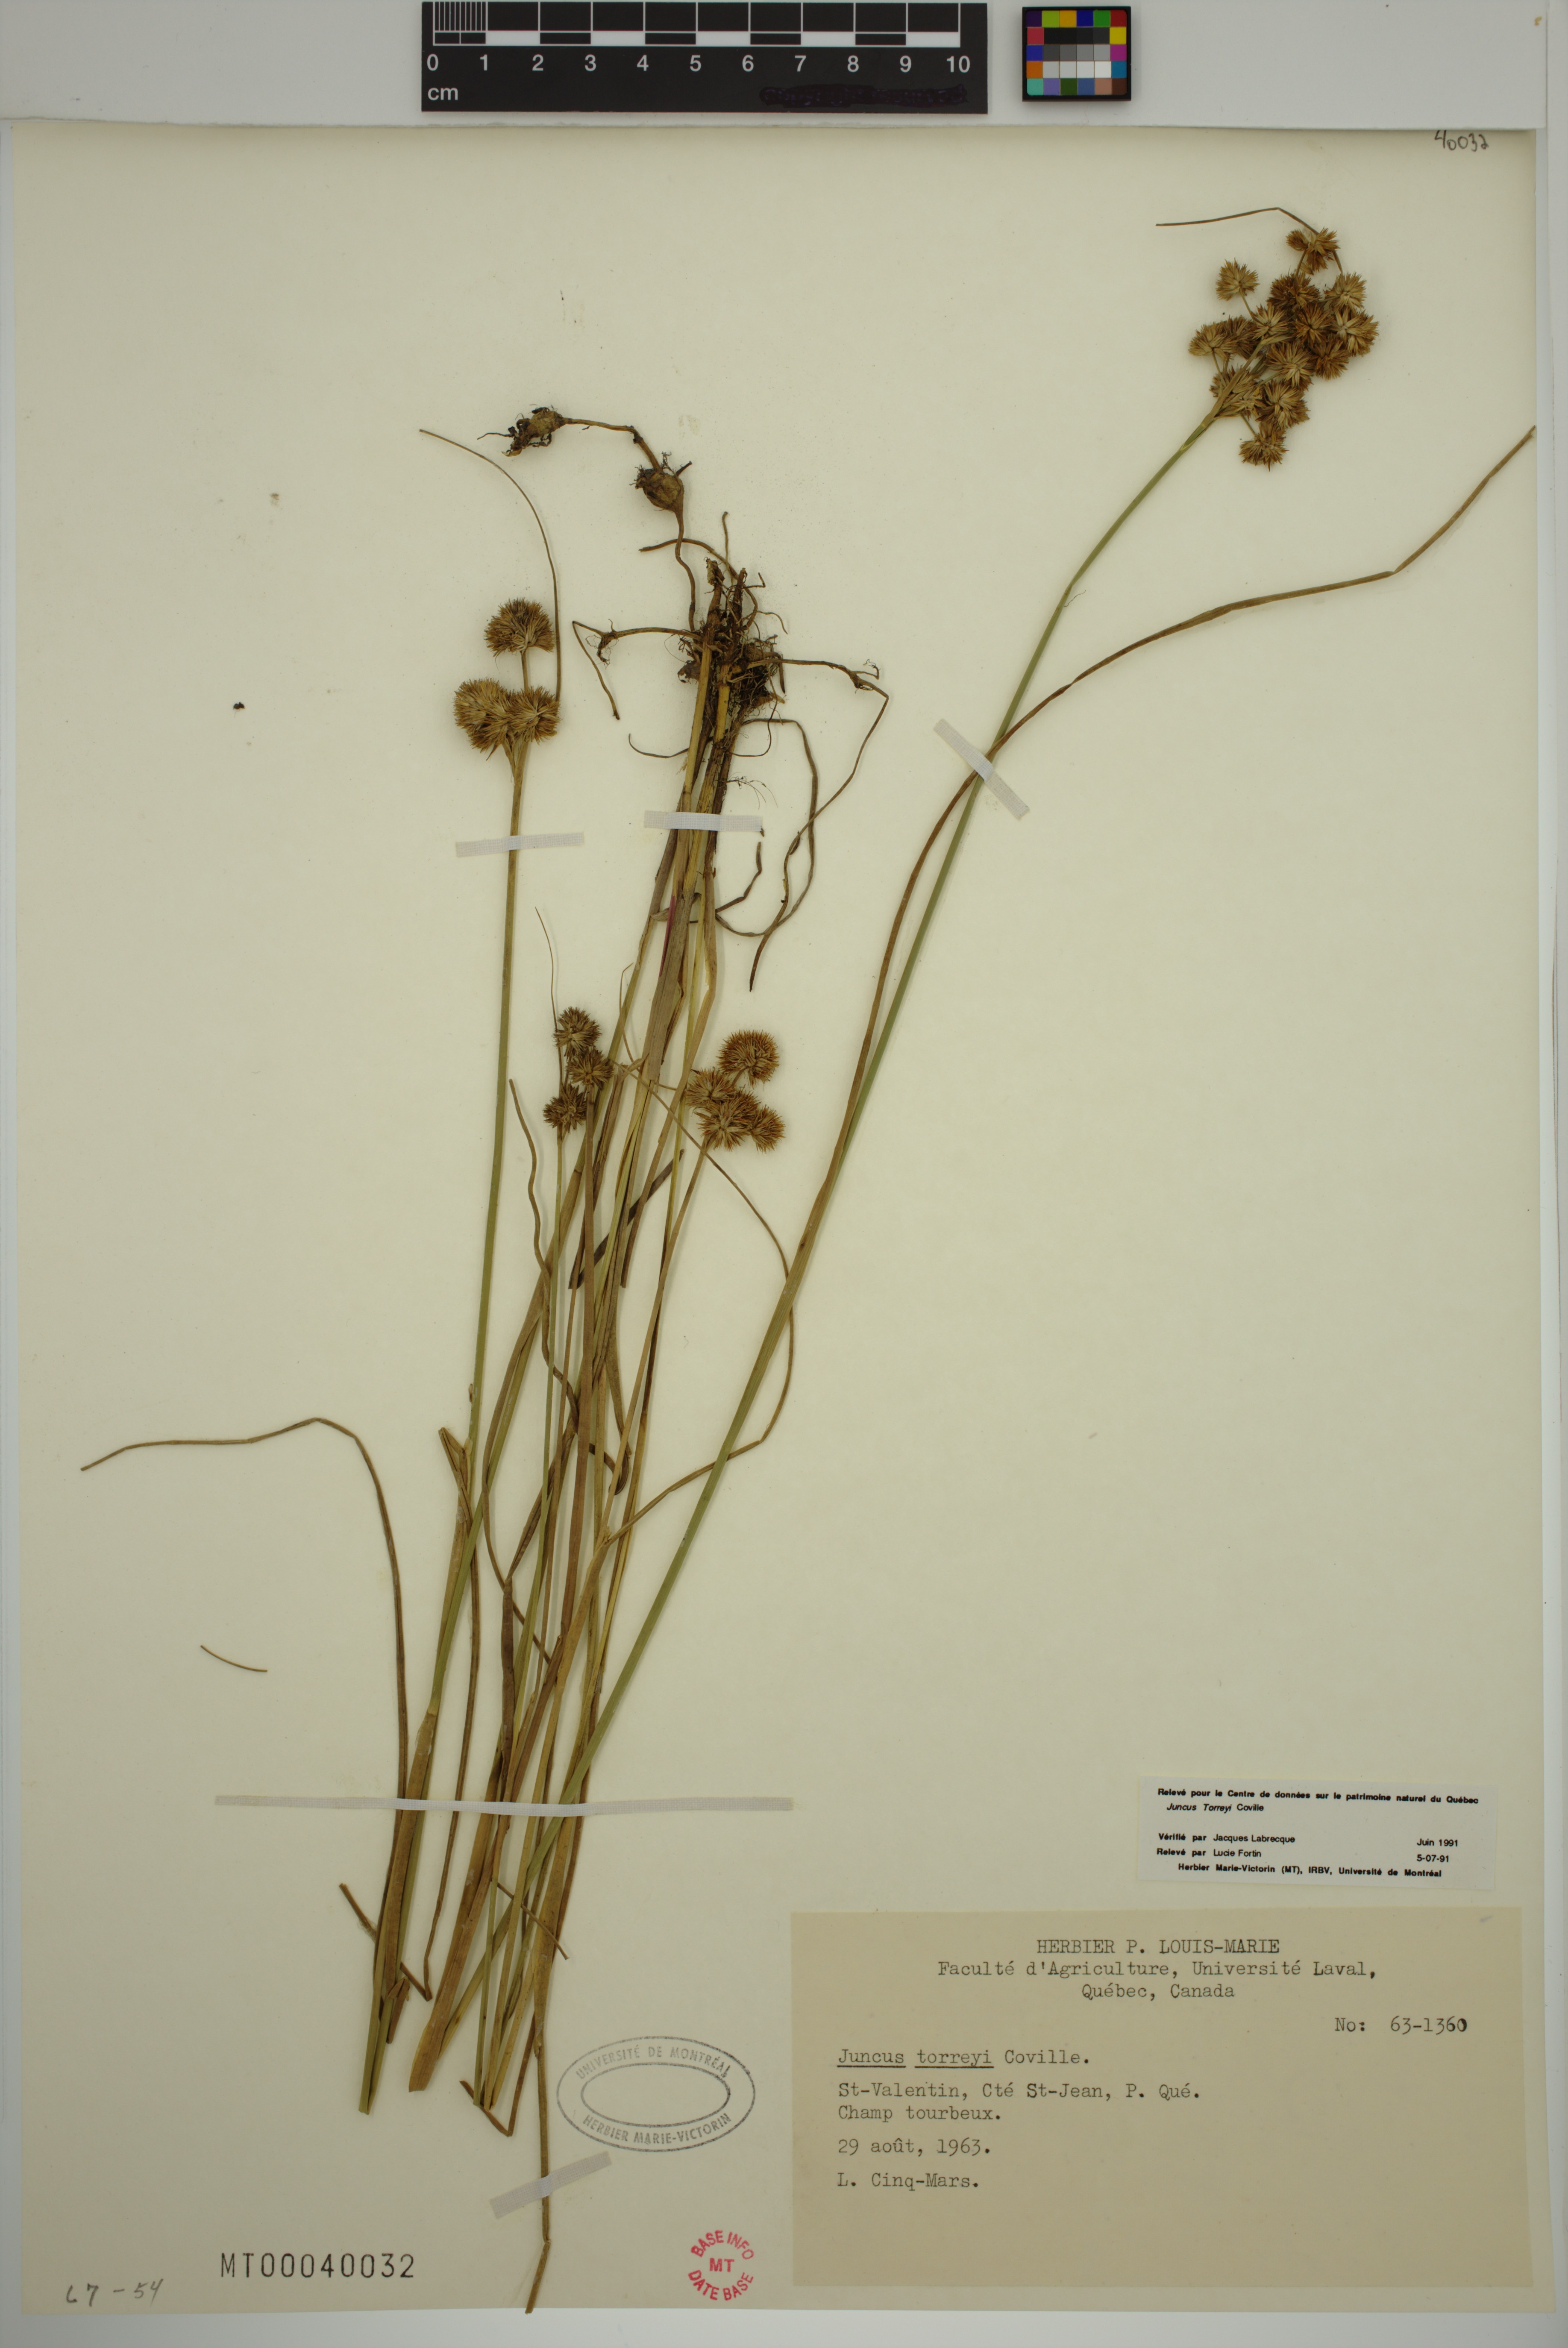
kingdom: Plantae
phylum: Tracheophyta
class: Liliopsida
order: Poales
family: Juncaceae
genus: Juncus
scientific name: Juncus torreyi
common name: Torrey's rush
